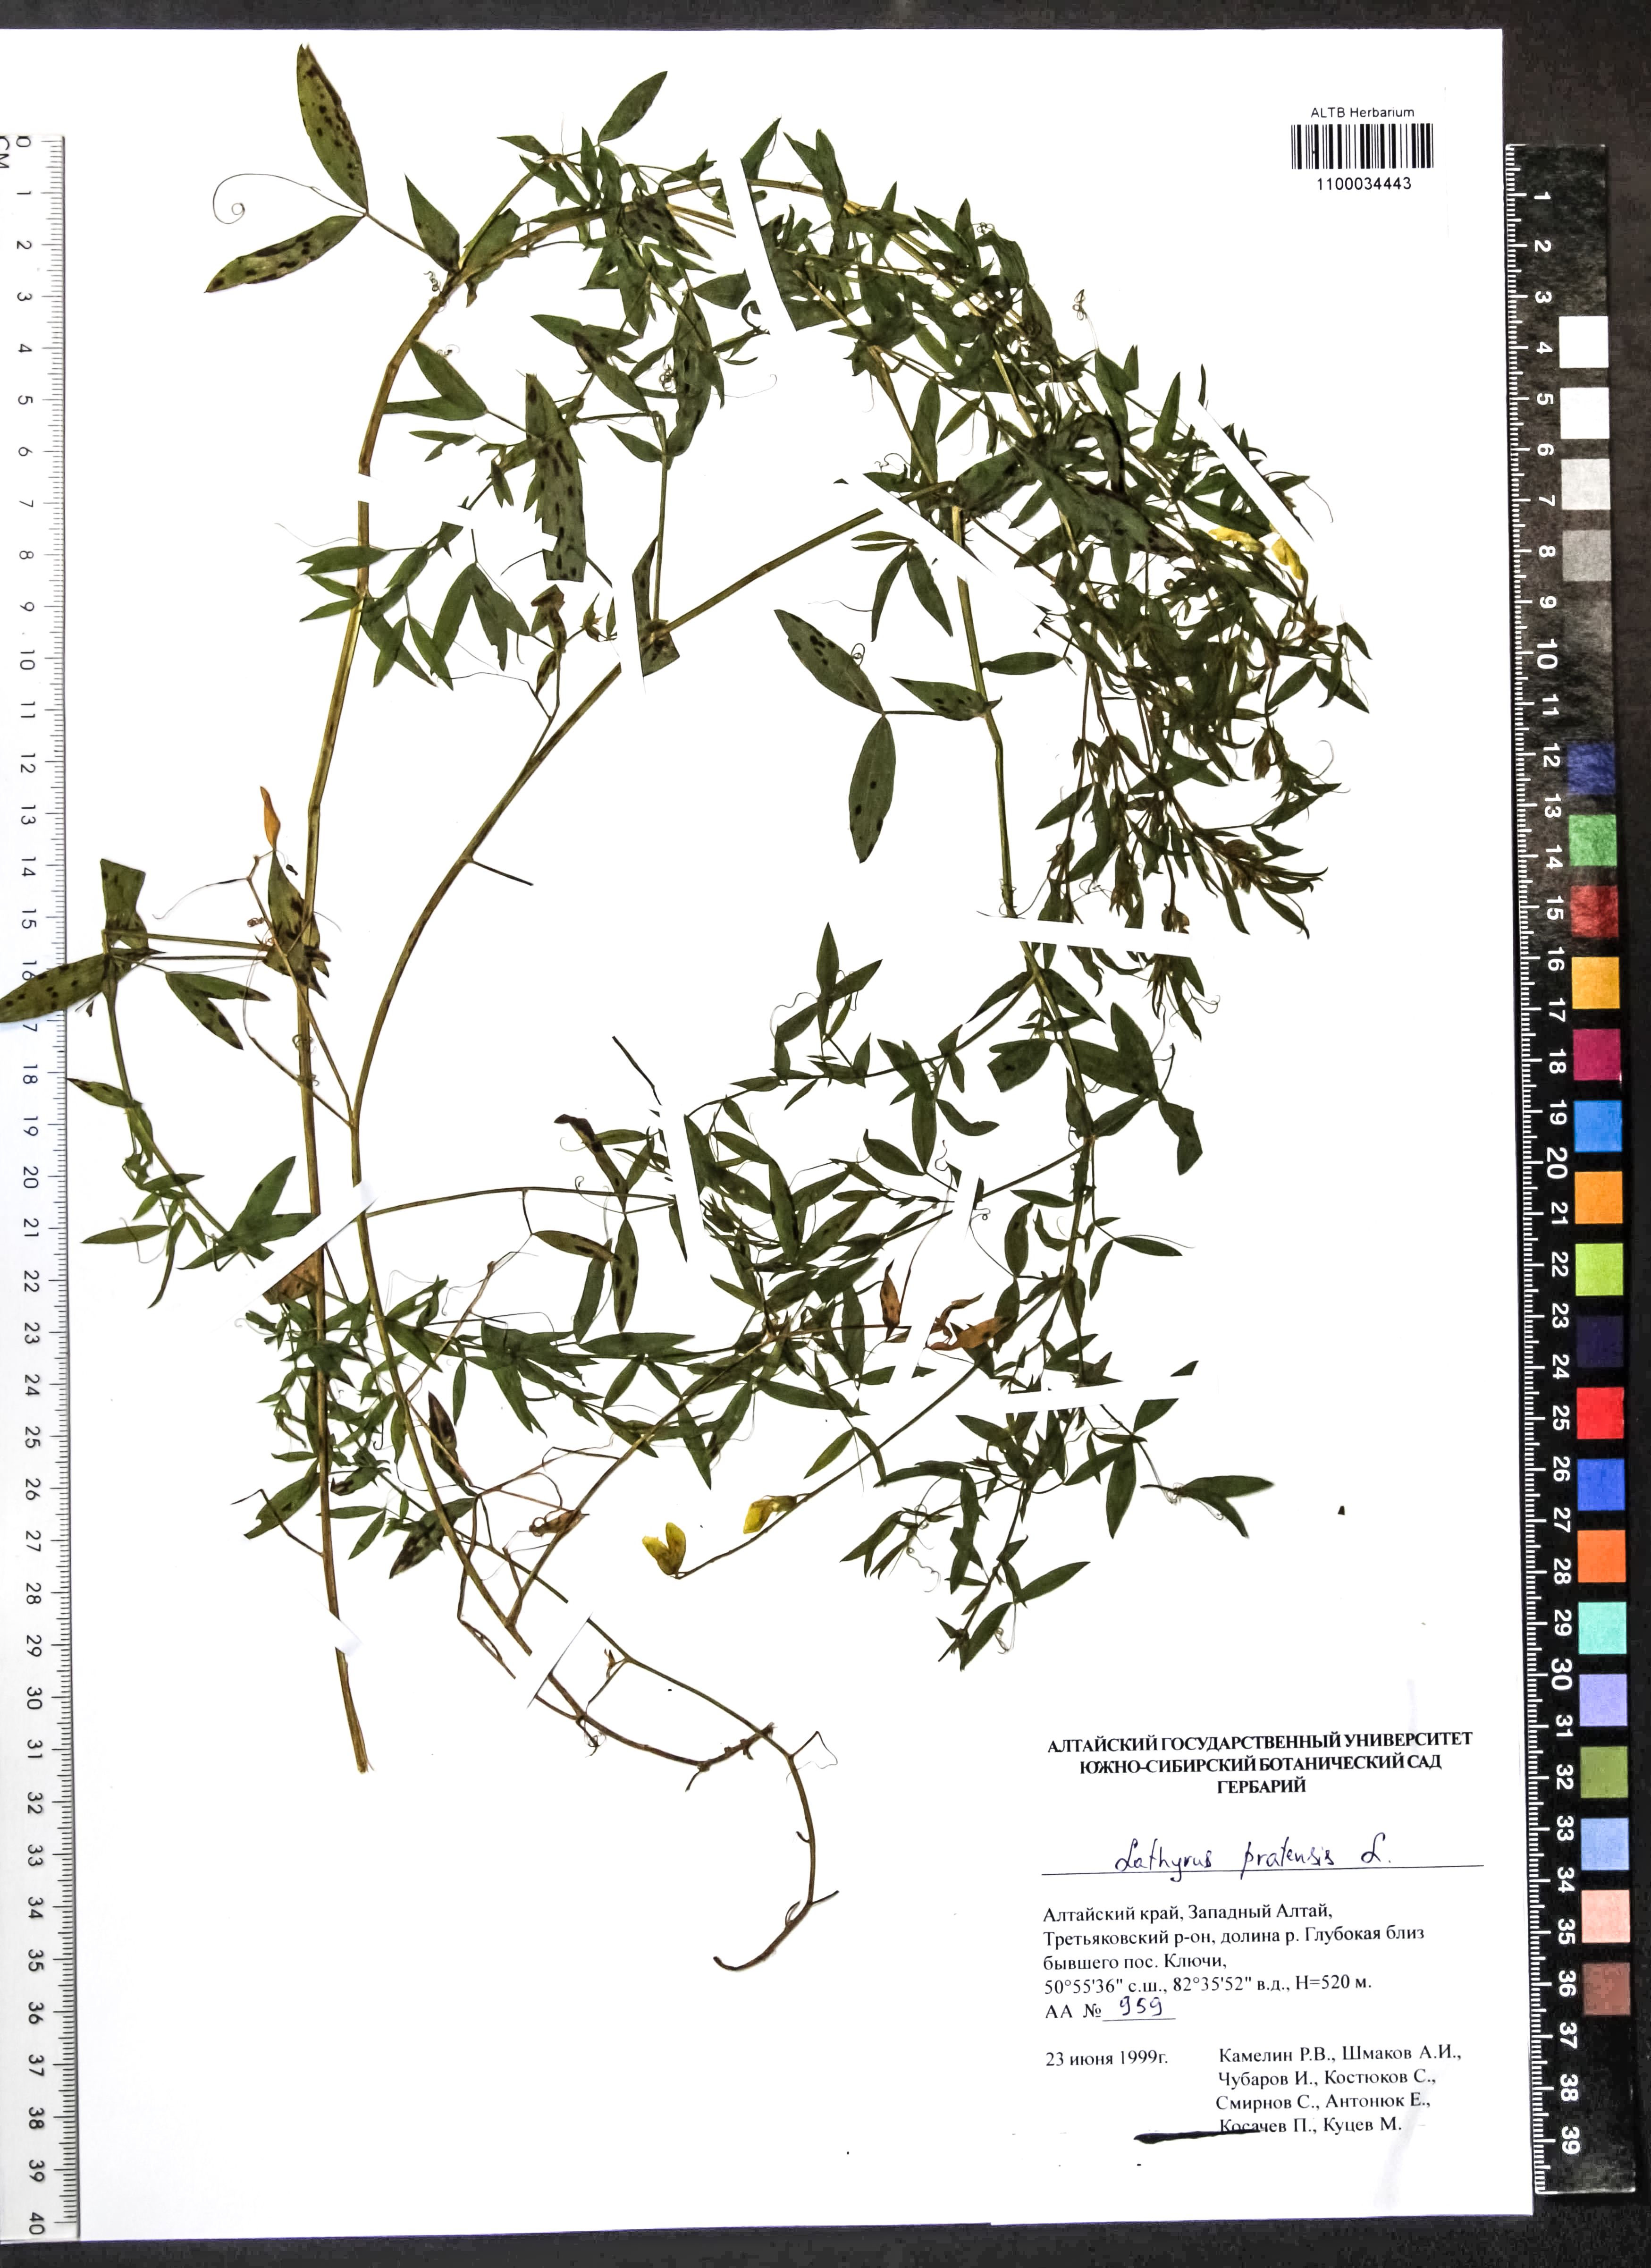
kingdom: Plantae
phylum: Tracheophyta
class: Magnoliopsida
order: Fabales
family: Fabaceae
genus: Lathyrus
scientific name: Lathyrus pratensis
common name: Meadow vetchling
